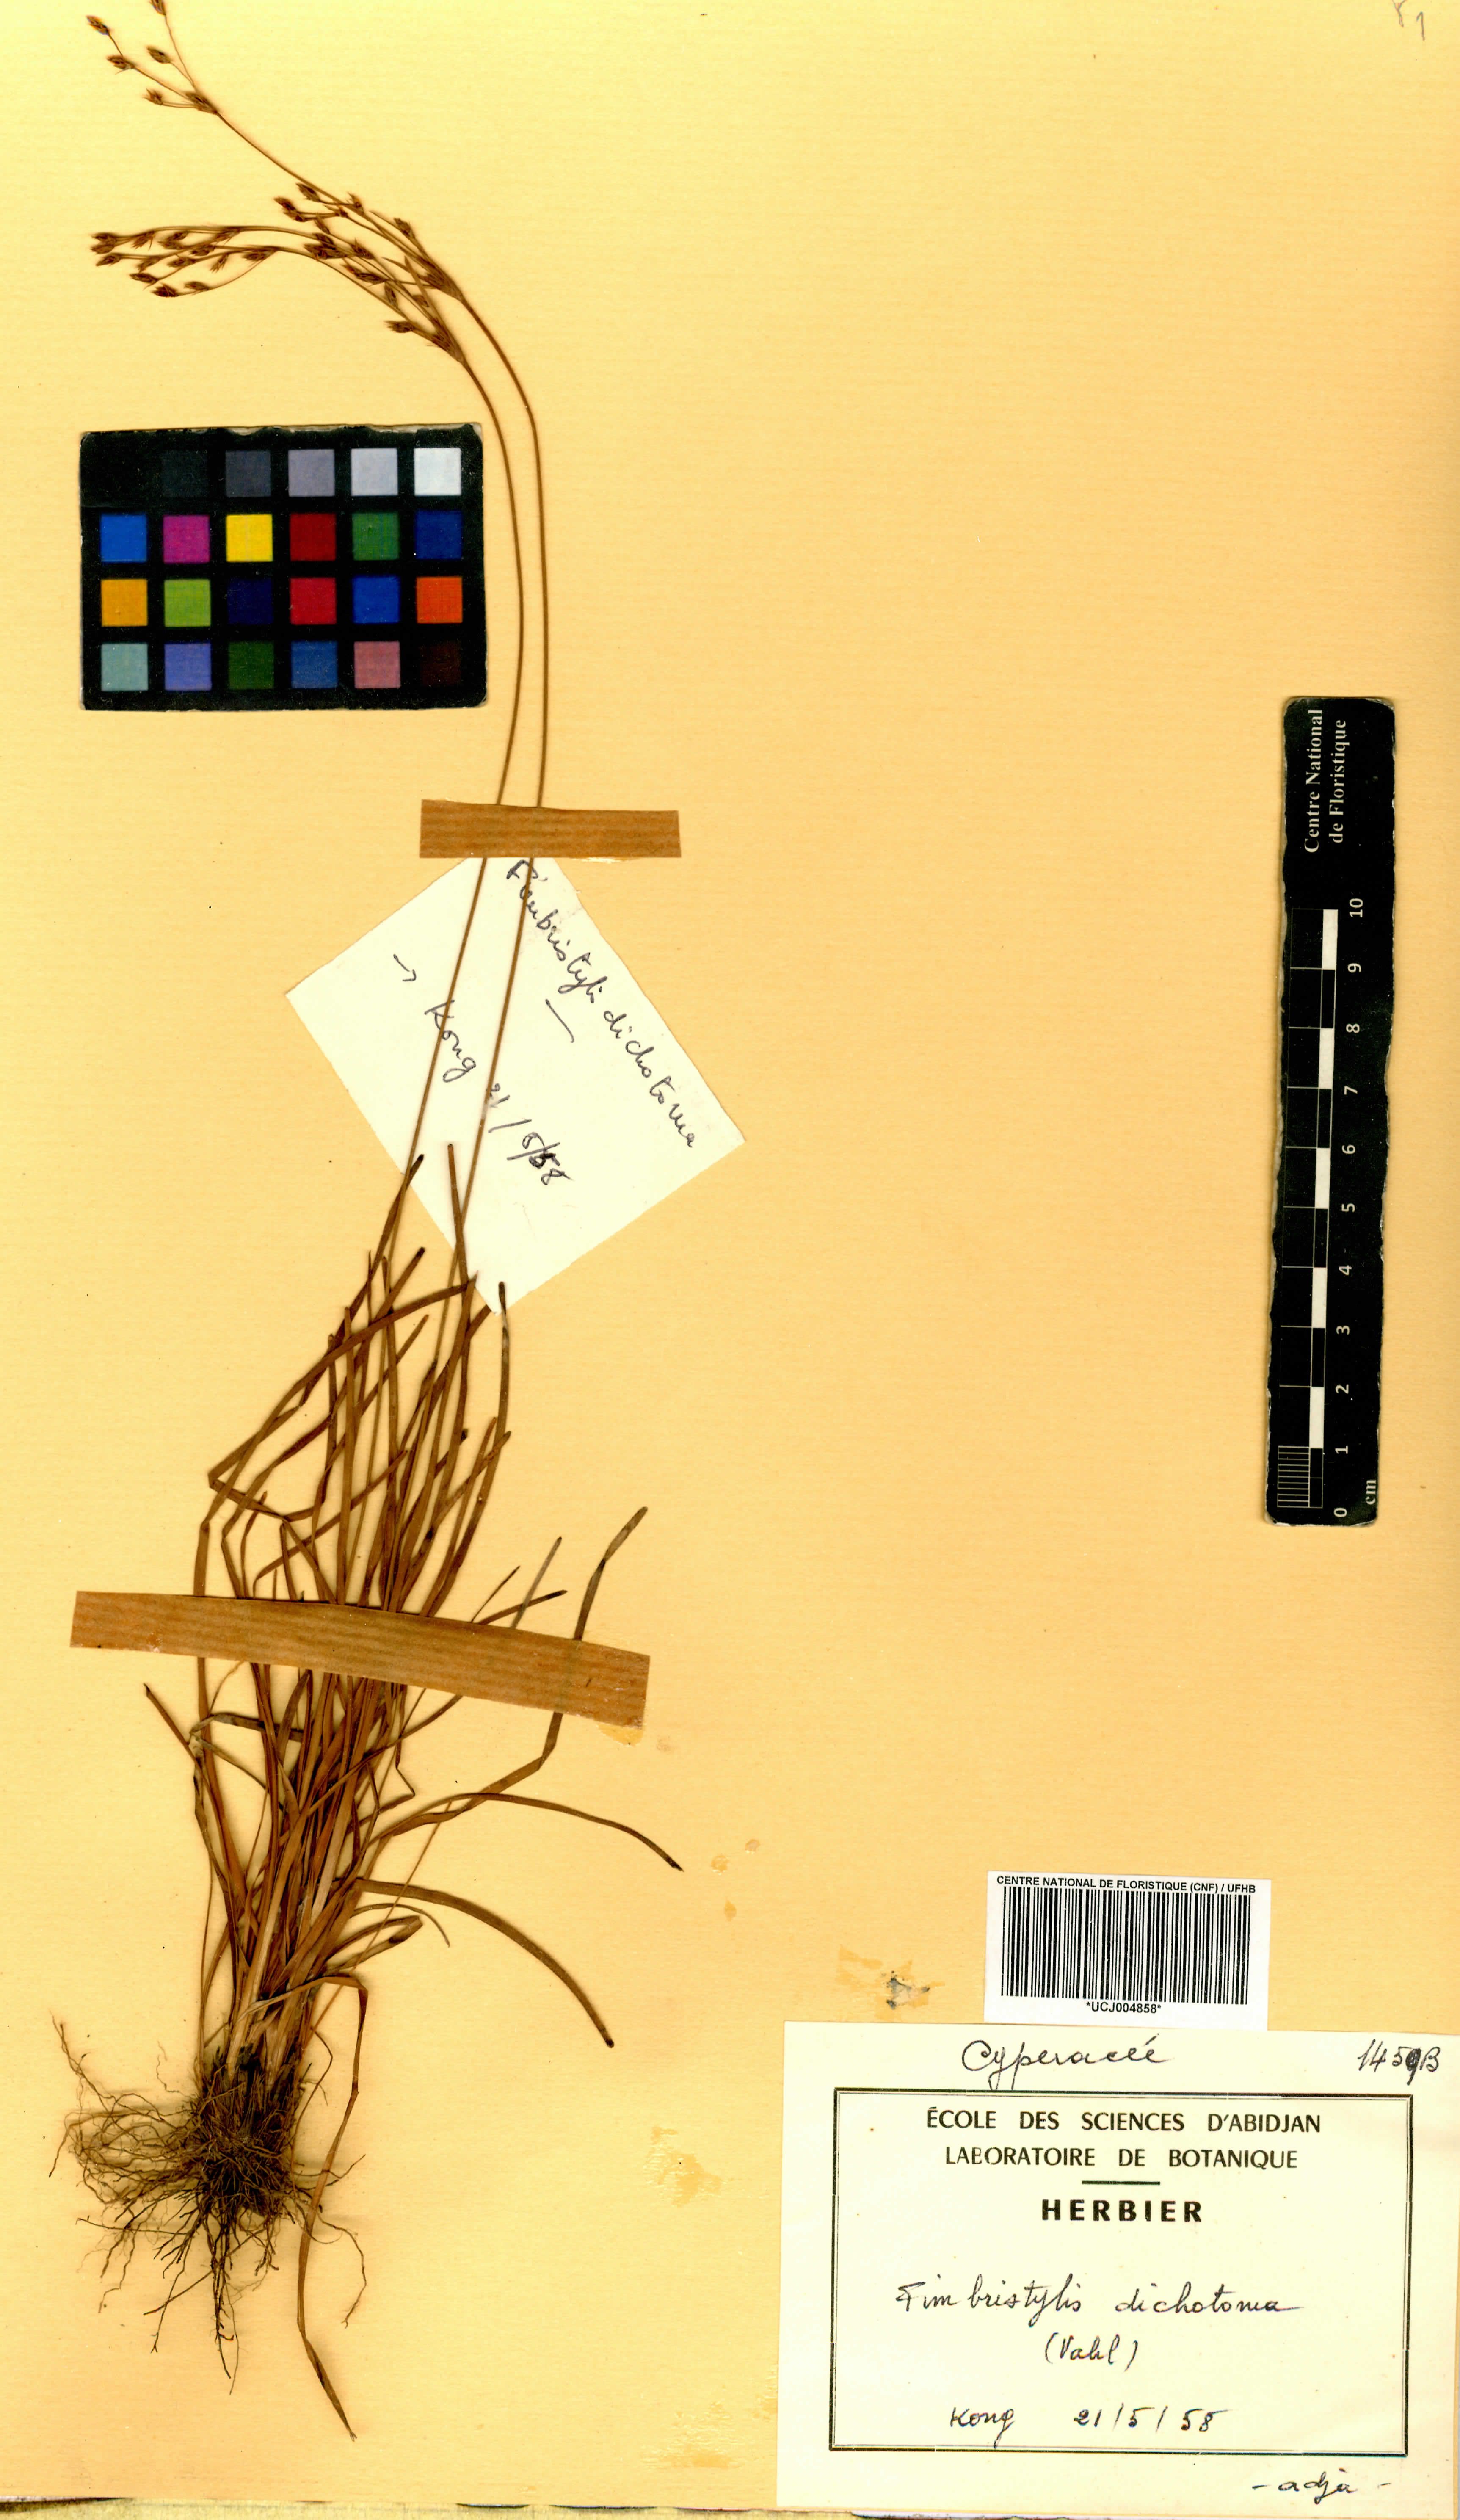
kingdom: Plantae
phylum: Tracheophyta
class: Liliopsida
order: Poales
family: Cyperaceae
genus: Fimbristylis
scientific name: Fimbristylis dichotoma
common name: Forked fimbry
